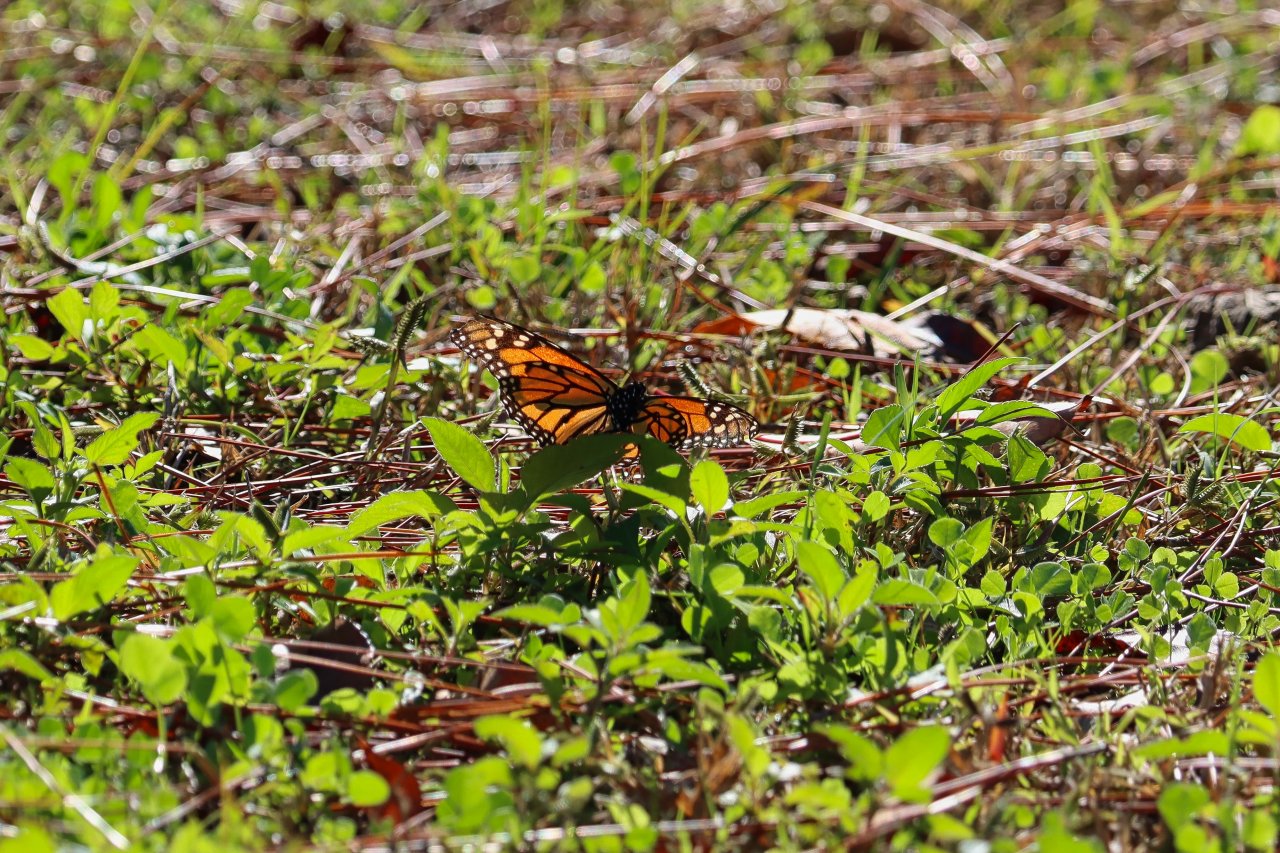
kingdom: Animalia
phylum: Arthropoda
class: Insecta
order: Lepidoptera
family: Nymphalidae
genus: Danaus
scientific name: Danaus plexippus
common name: Monarch
